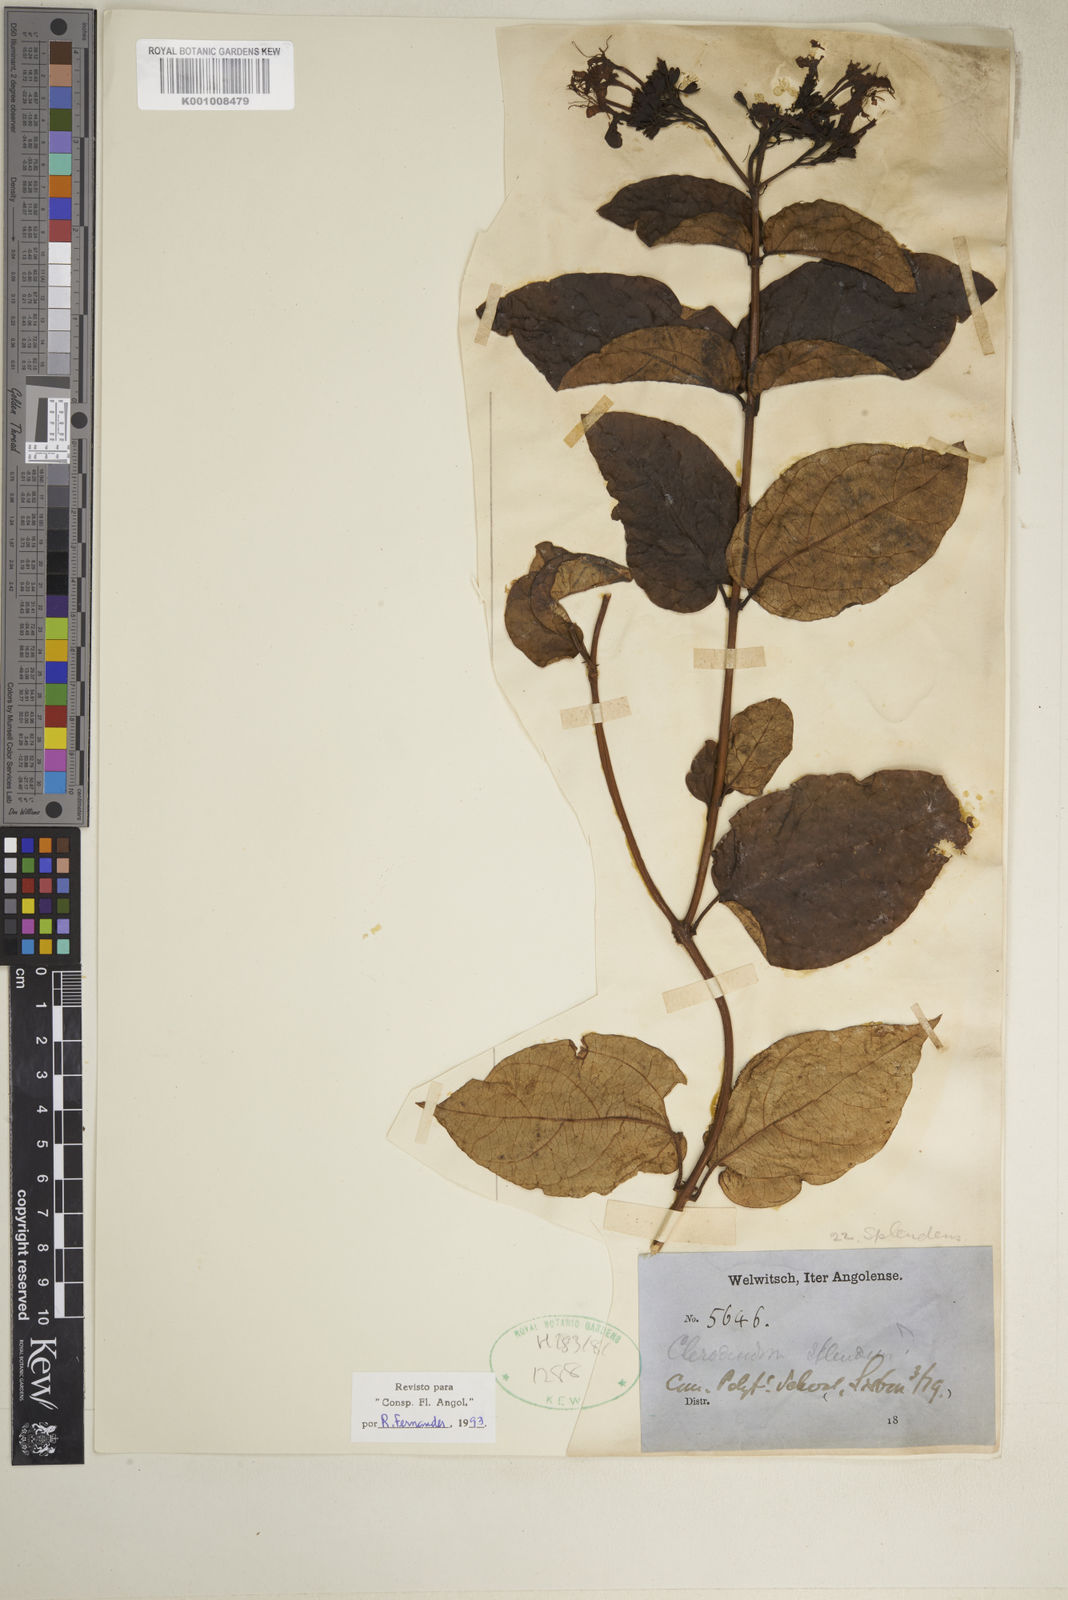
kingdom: Plantae
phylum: Tracheophyta
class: Magnoliopsida
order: Lamiales
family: Lamiaceae
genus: Clerodendrum
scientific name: Clerodendrum splendens
